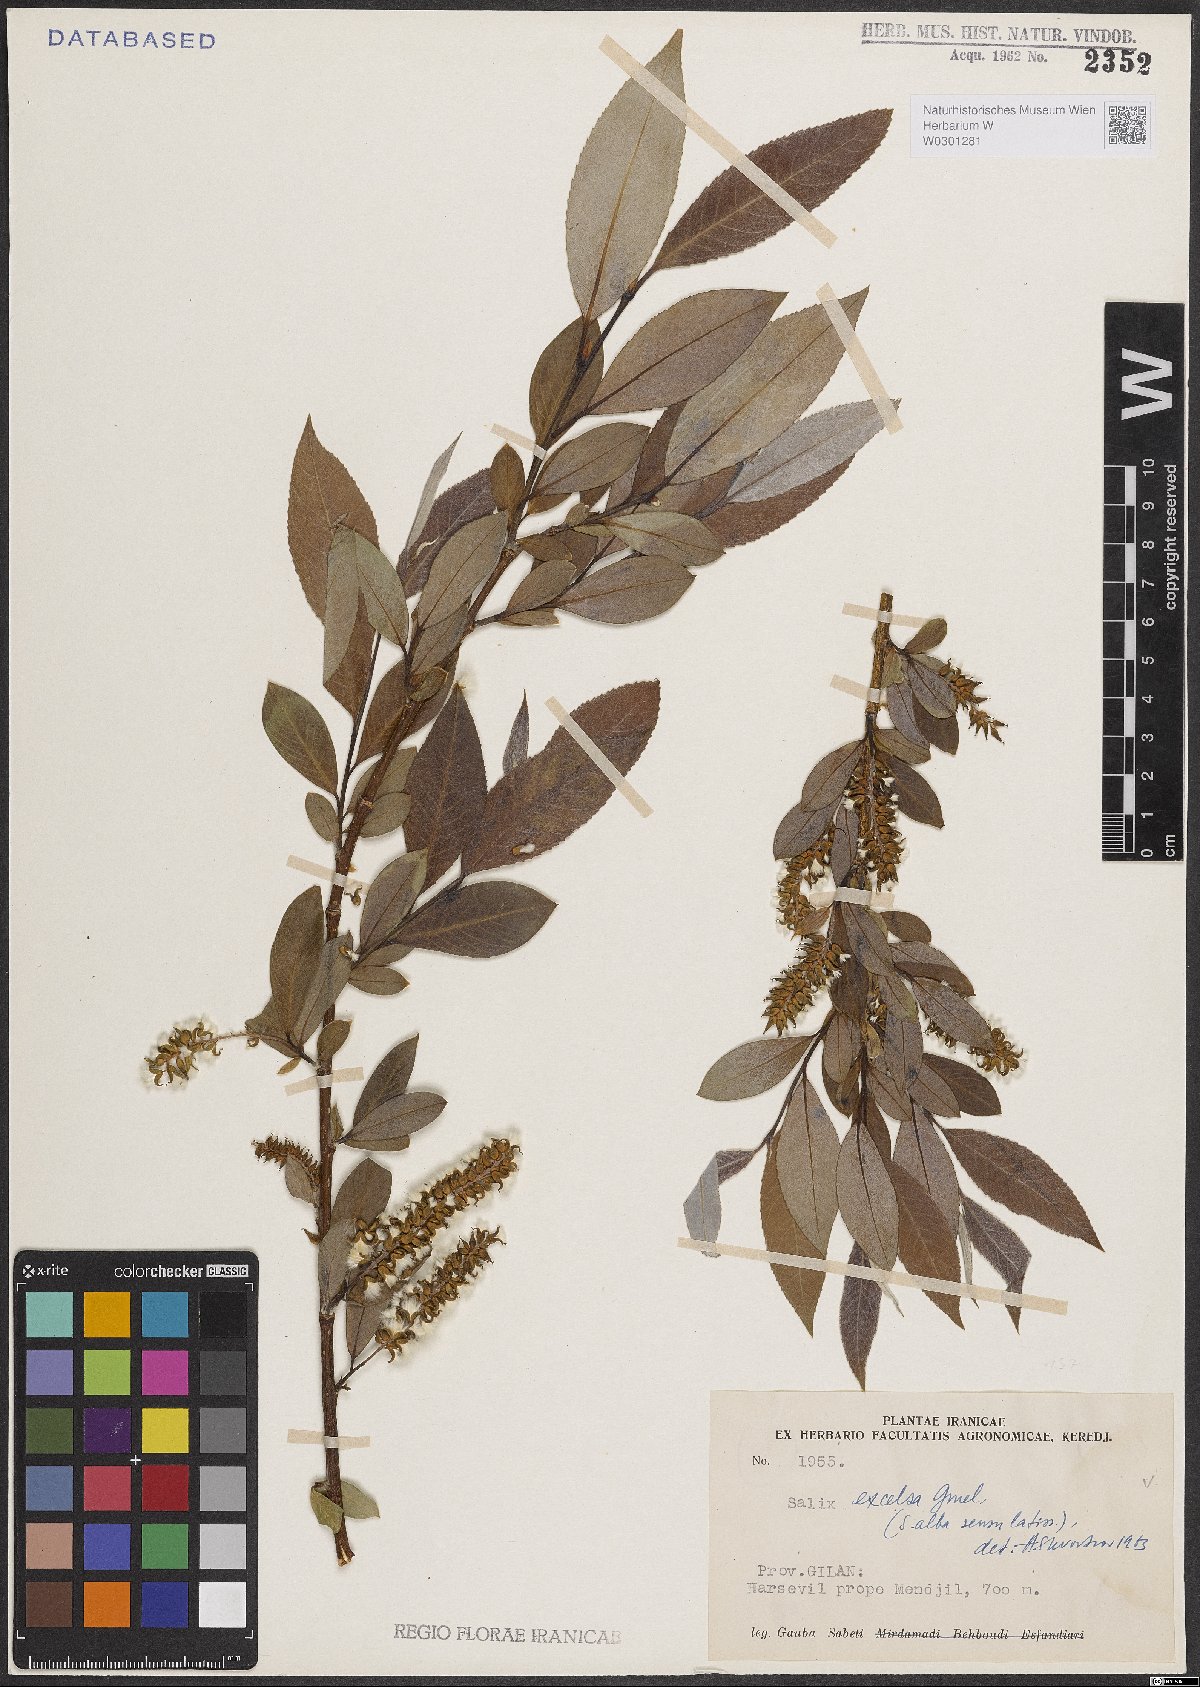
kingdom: Plantae
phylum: Tracheophyta
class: Magnoliopsida
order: Malpighiales
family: Salicaceae
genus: Salix
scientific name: Salix excelsa
